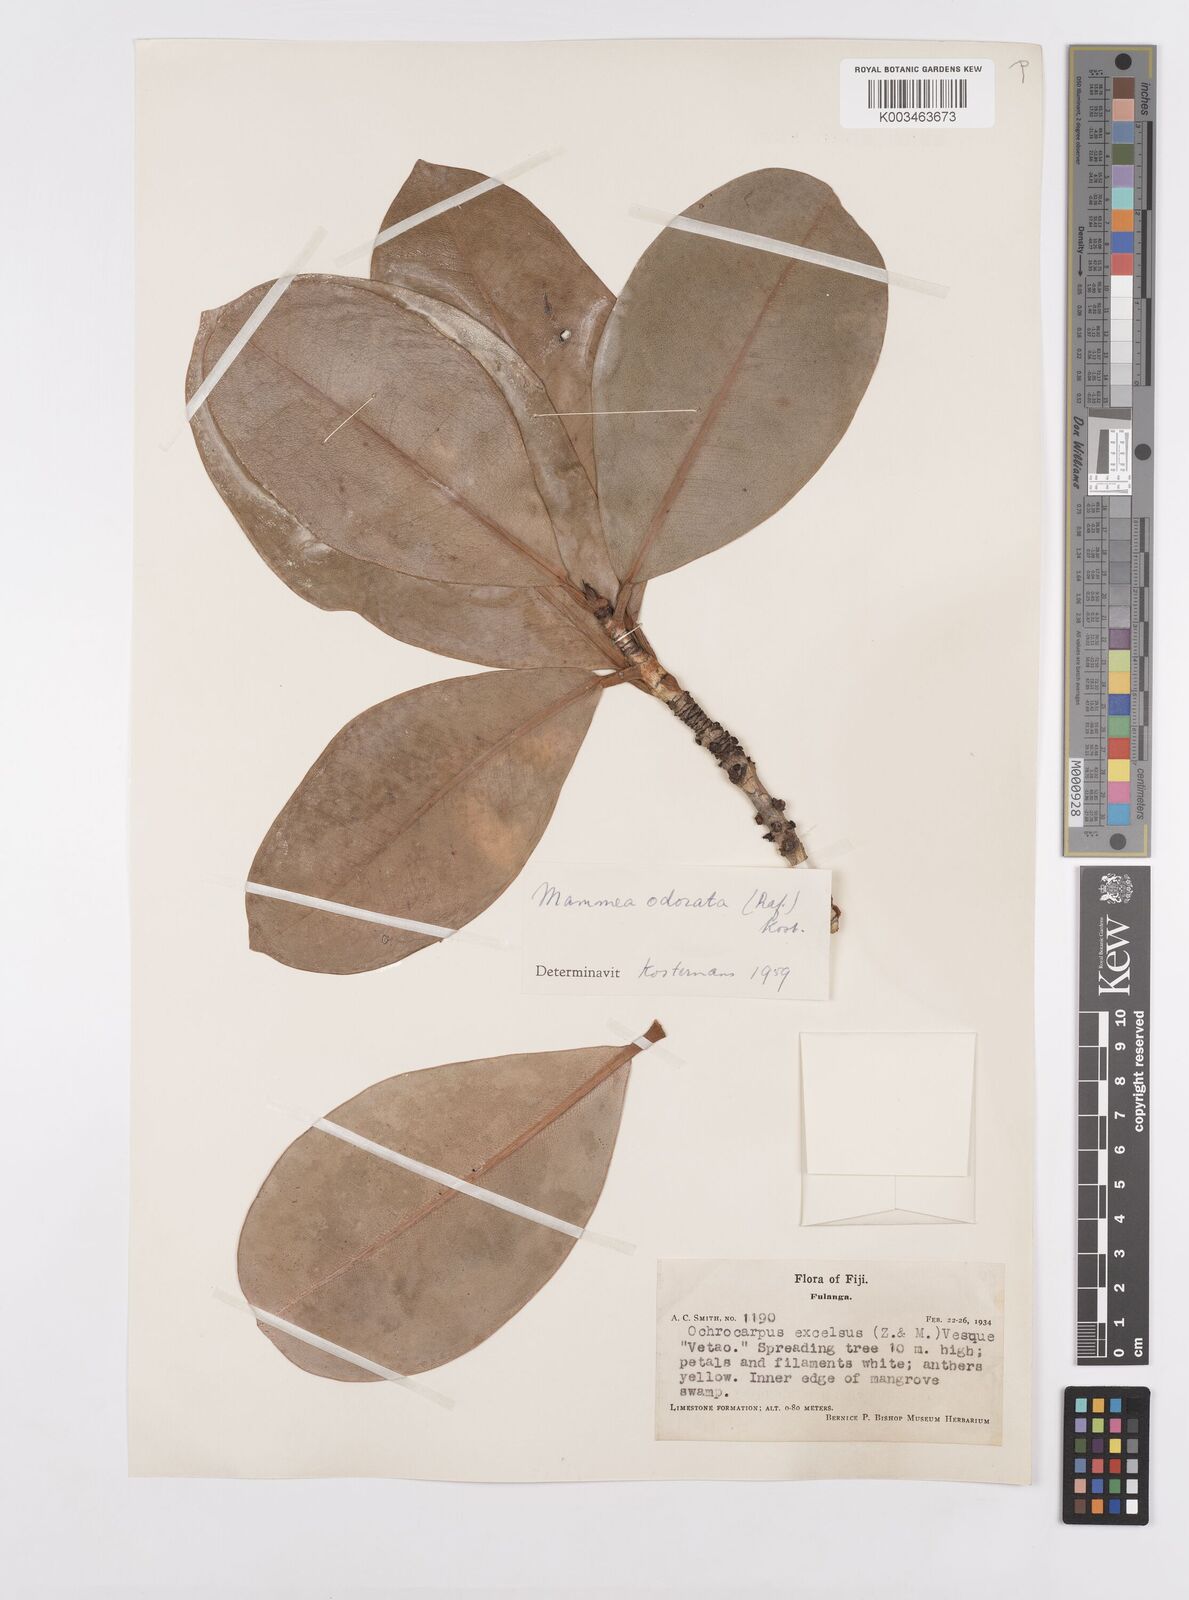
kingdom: Plantae
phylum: Tracheophyta
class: Magnoliopsida
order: Malpighiales
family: Calophyllaceae
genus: Mammea
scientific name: Mammea odorata
